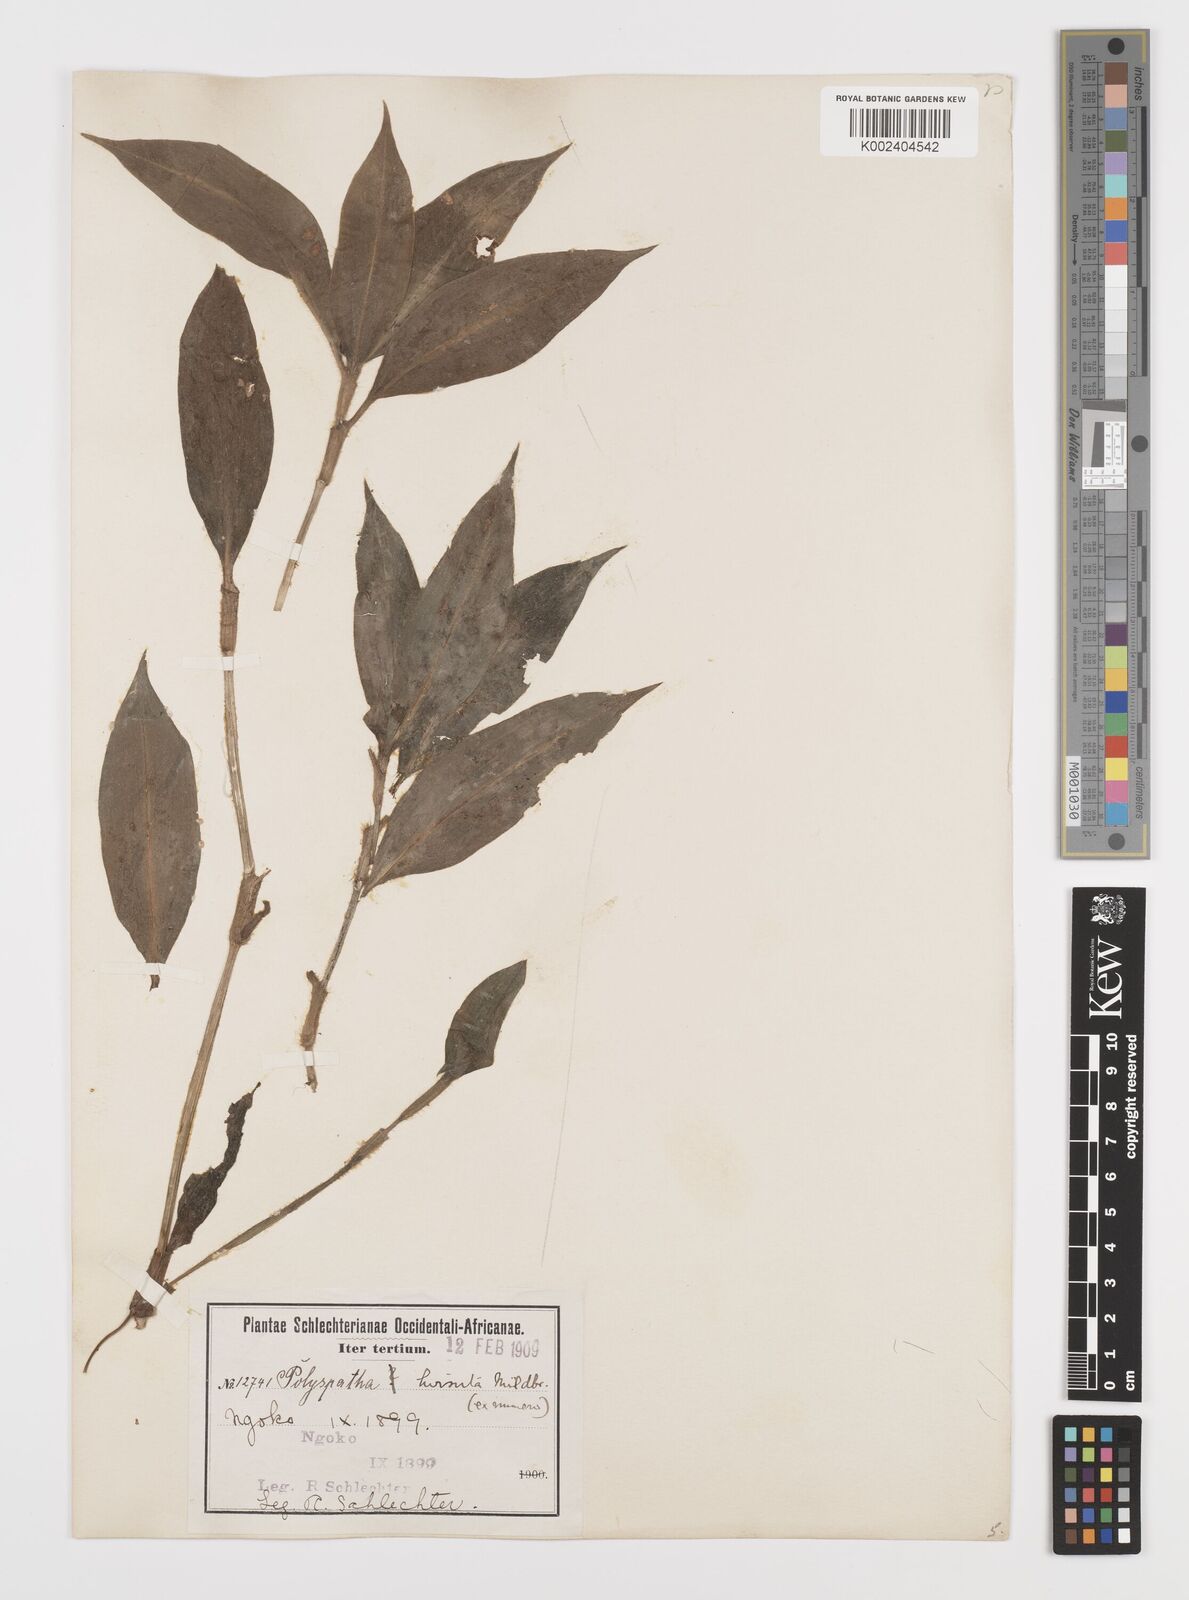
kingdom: Plantae
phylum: Tracheophyta
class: Liliopsida
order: Commelinales
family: Commelinaceae
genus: Polyspatha
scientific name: Polyspatha hirsuta
